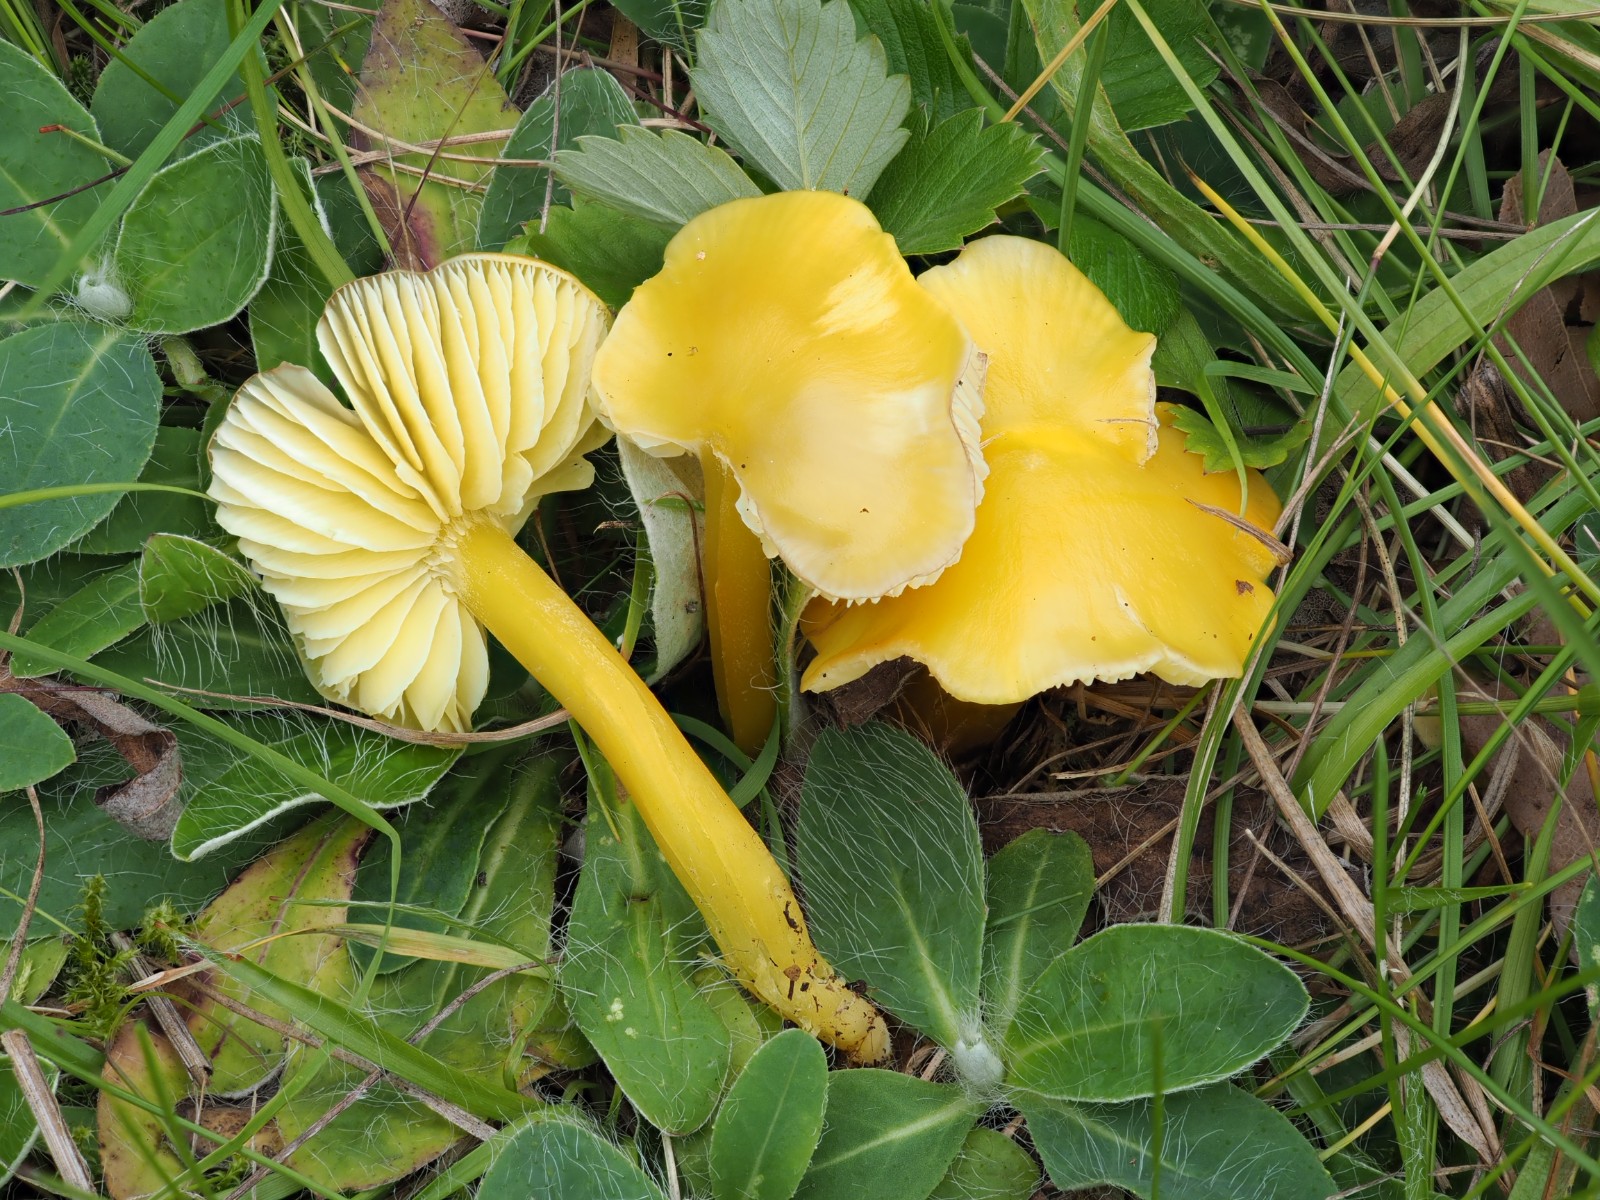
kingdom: Fungi
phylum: Basidiomycota
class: Agaricomycetes
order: Agaricales
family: Hygrophoraceae
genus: Hygrocybe
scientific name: Hygrocybe glutinipes
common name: slimstokket vokshat
